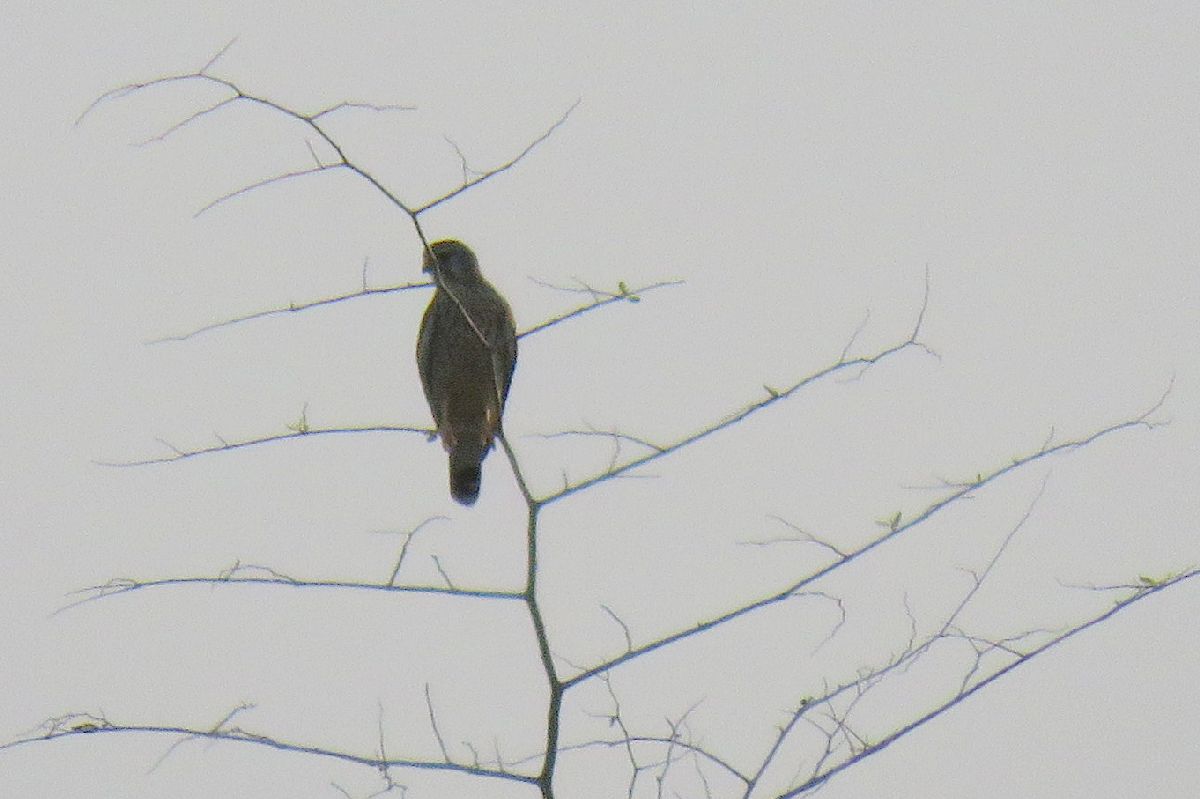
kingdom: Animalia
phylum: Chordata
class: Aves
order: Falconiformes
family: Falconidae
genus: Falco
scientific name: Falco tinnunculus
